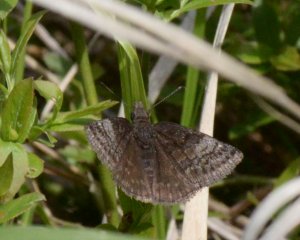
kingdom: Animalia
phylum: Arthropoda
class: Insecta
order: Lepidoptera
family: Hesperiidae
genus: Erynnis
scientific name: Erynnis icelus
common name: Dreamy Duskywing
